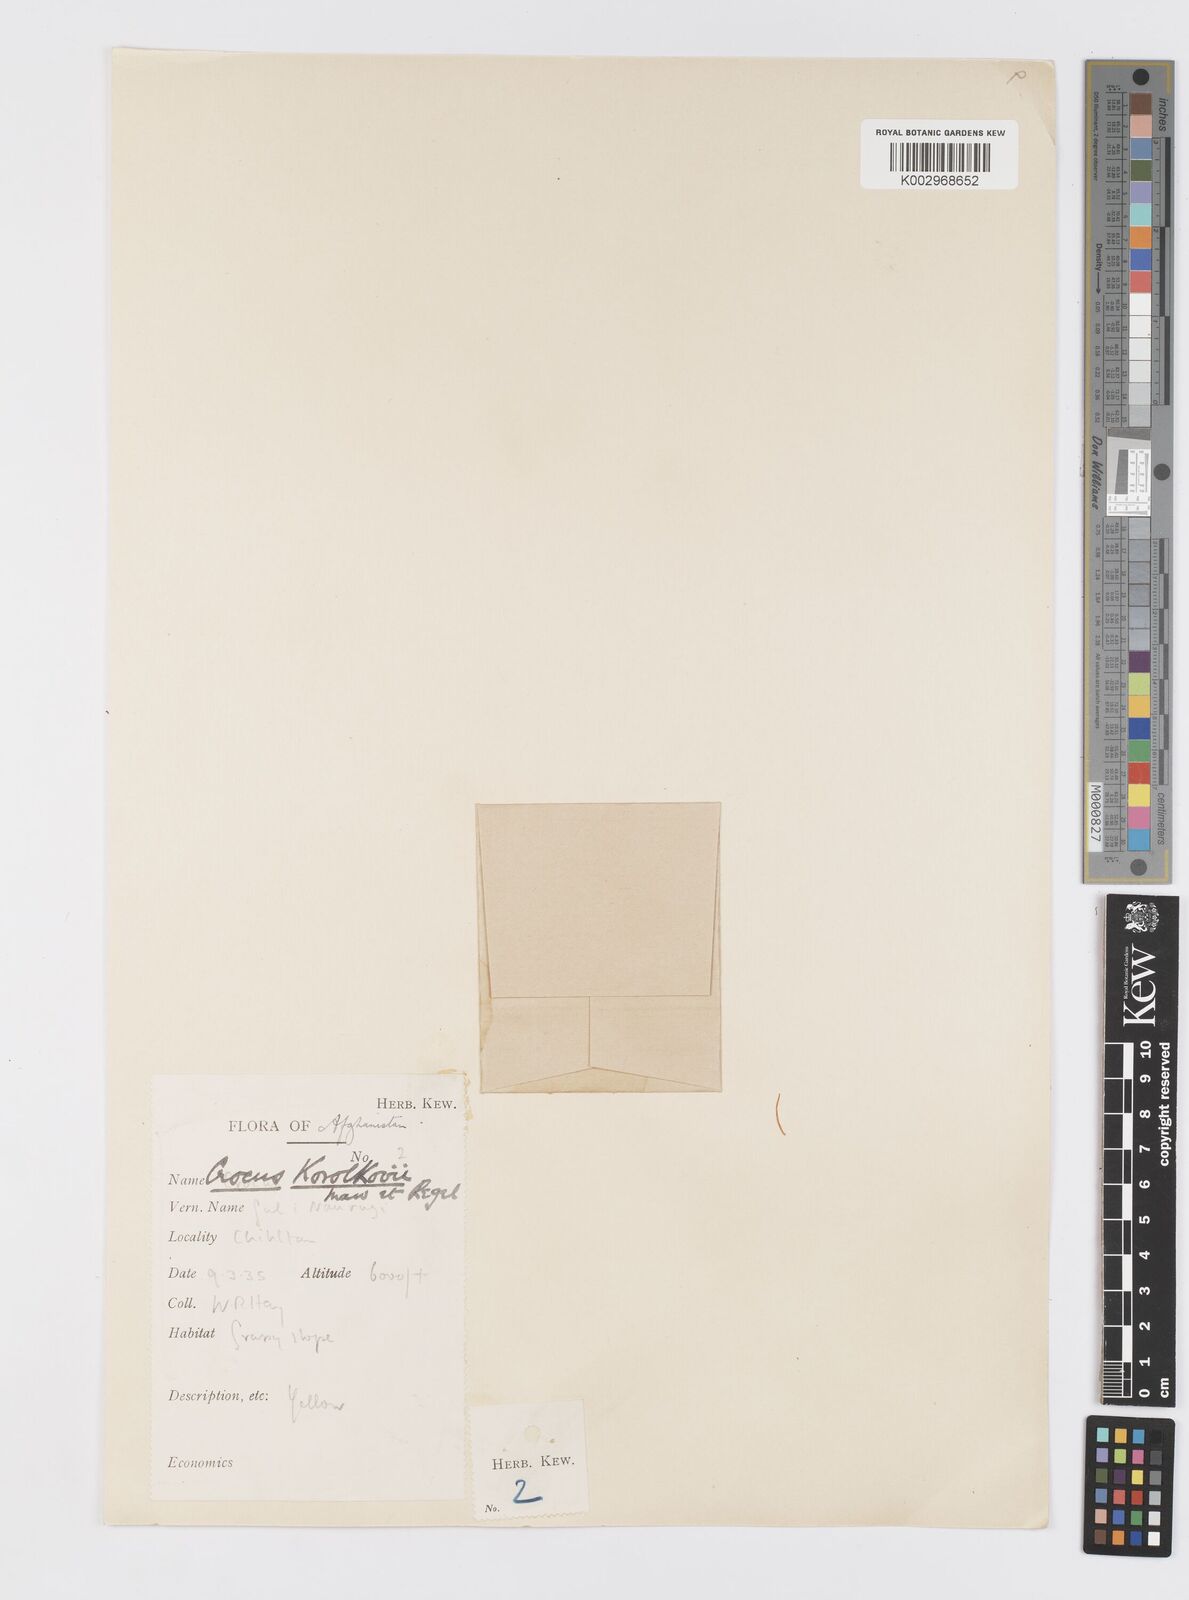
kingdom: Plantae
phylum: Tracheophyta
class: Liliopsida
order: Asparagales
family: Iridaceae
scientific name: Iridaceae
